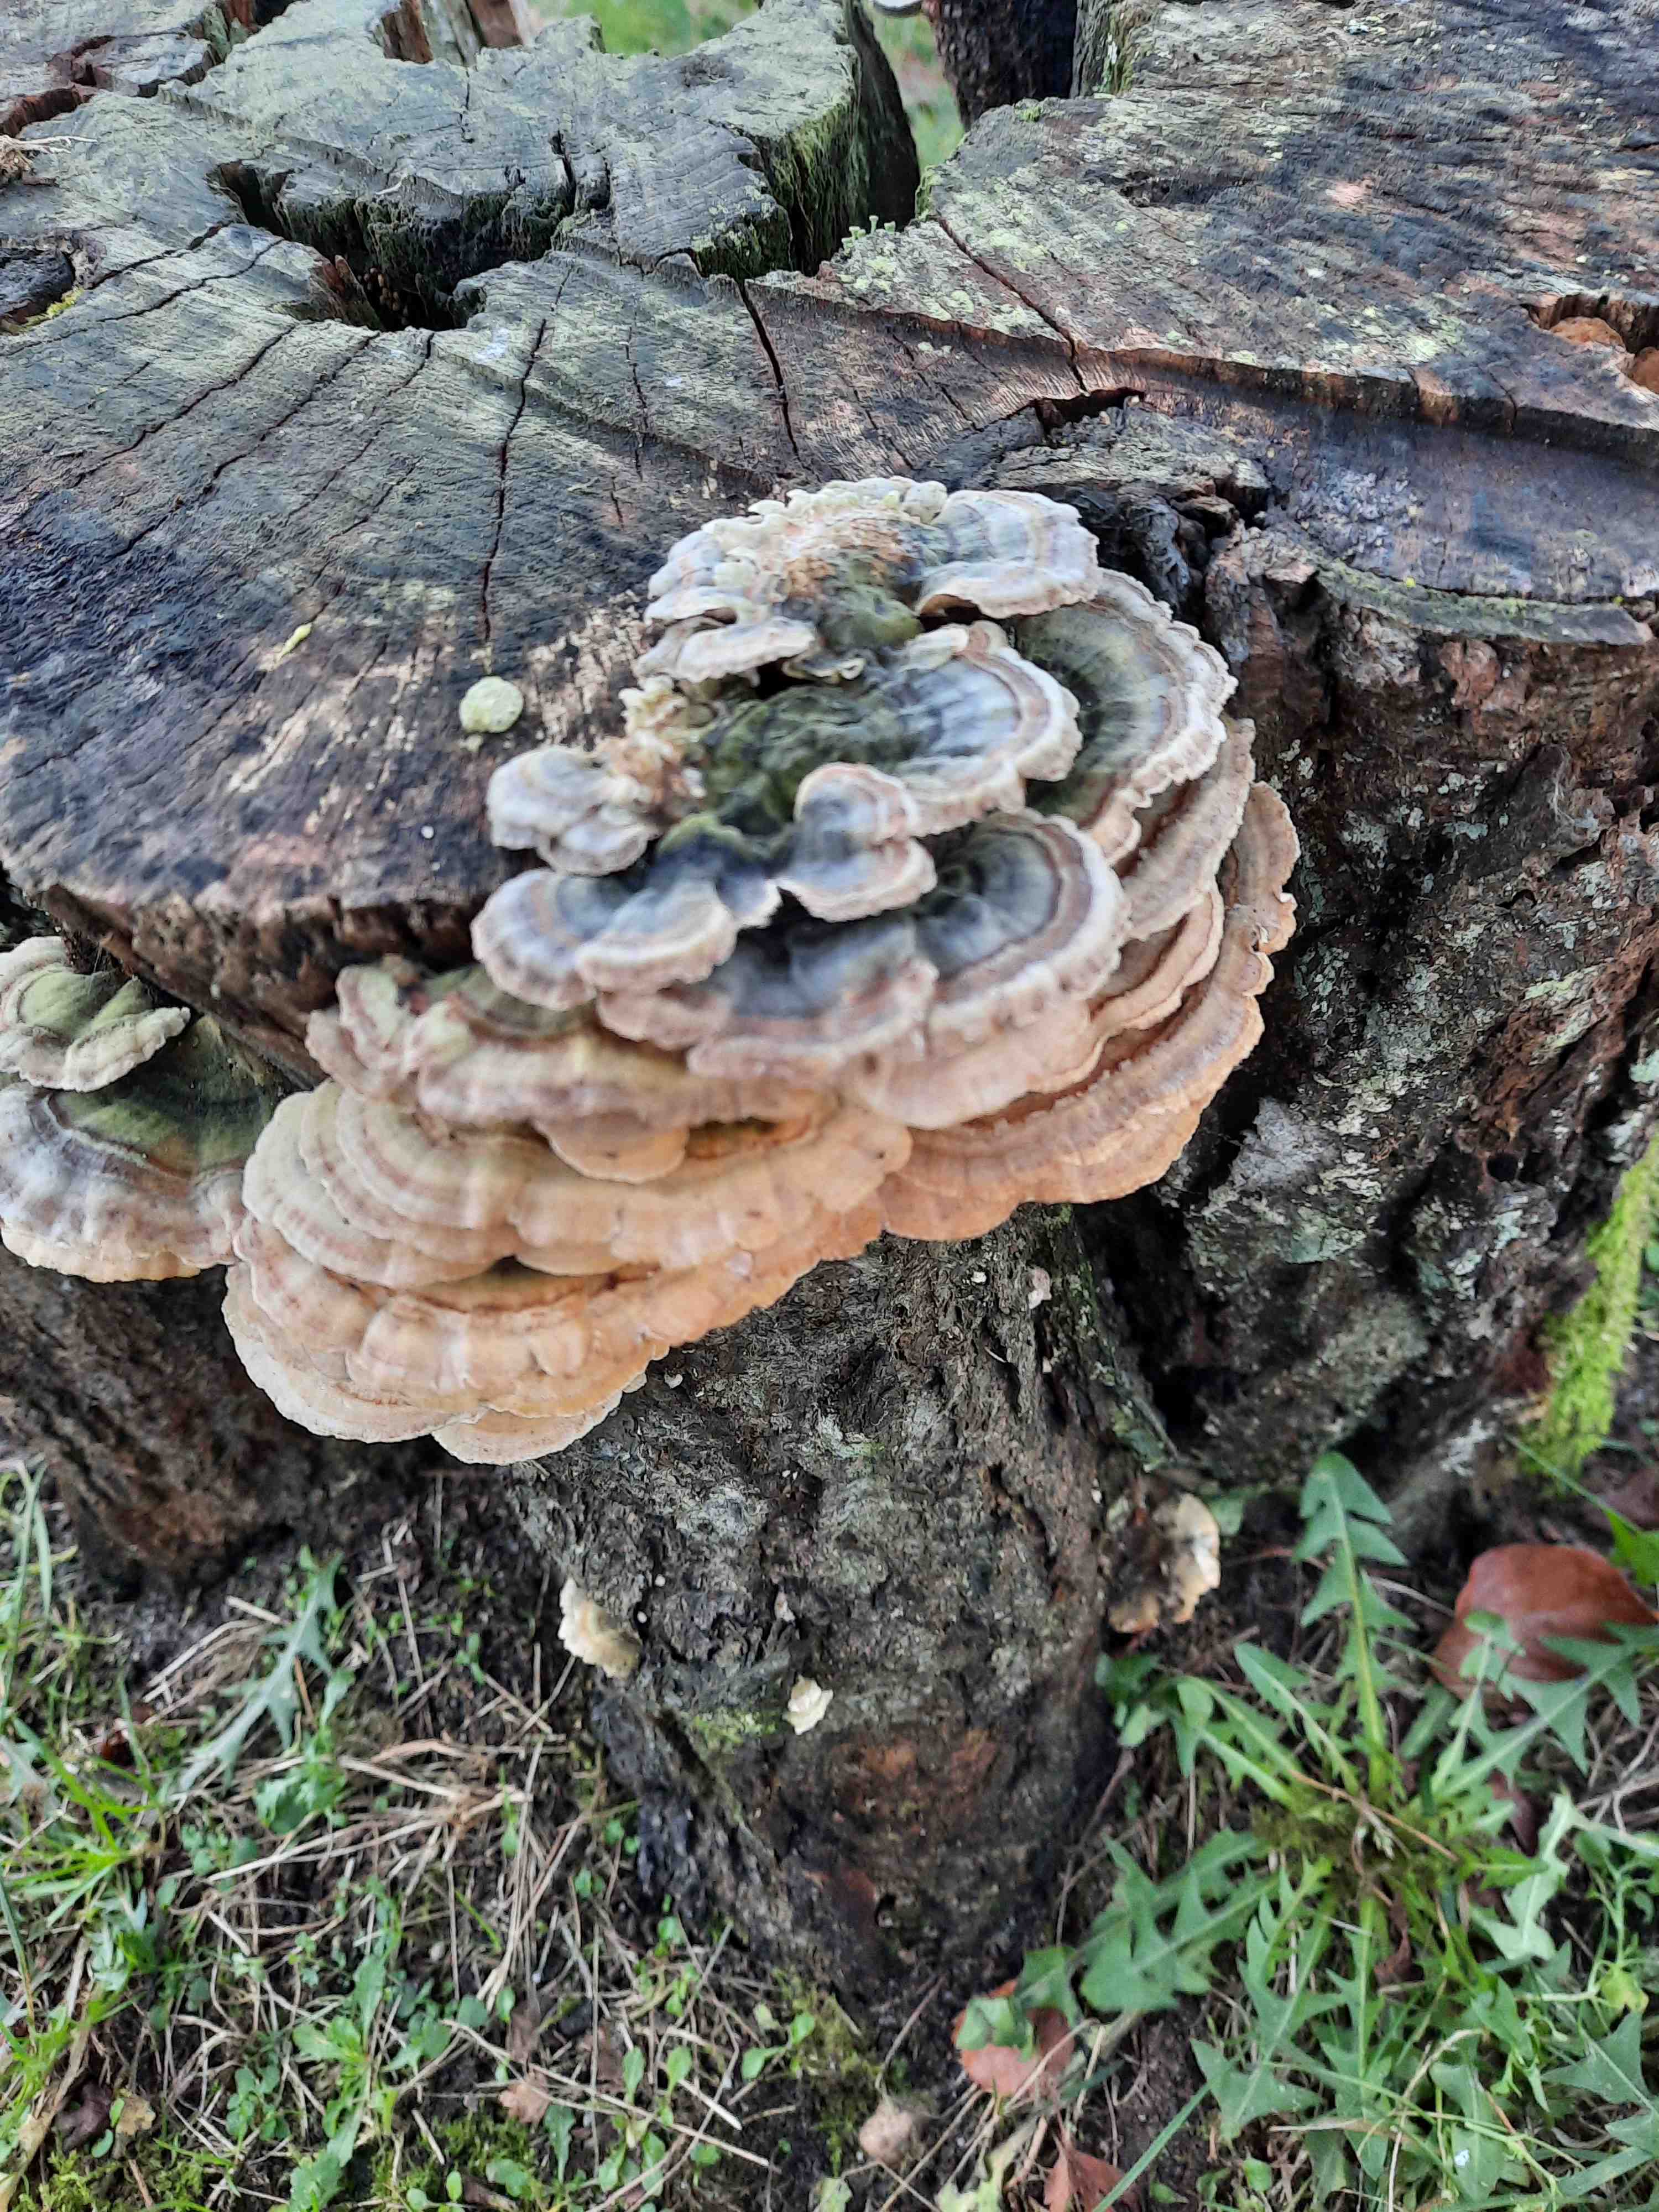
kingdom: Fungi
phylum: Basidiomycota
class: Agaricomycetes
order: Polyporales
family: Polyporaceae
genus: Trametes
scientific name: Trametes versicolor
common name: broget læderporesvamp
